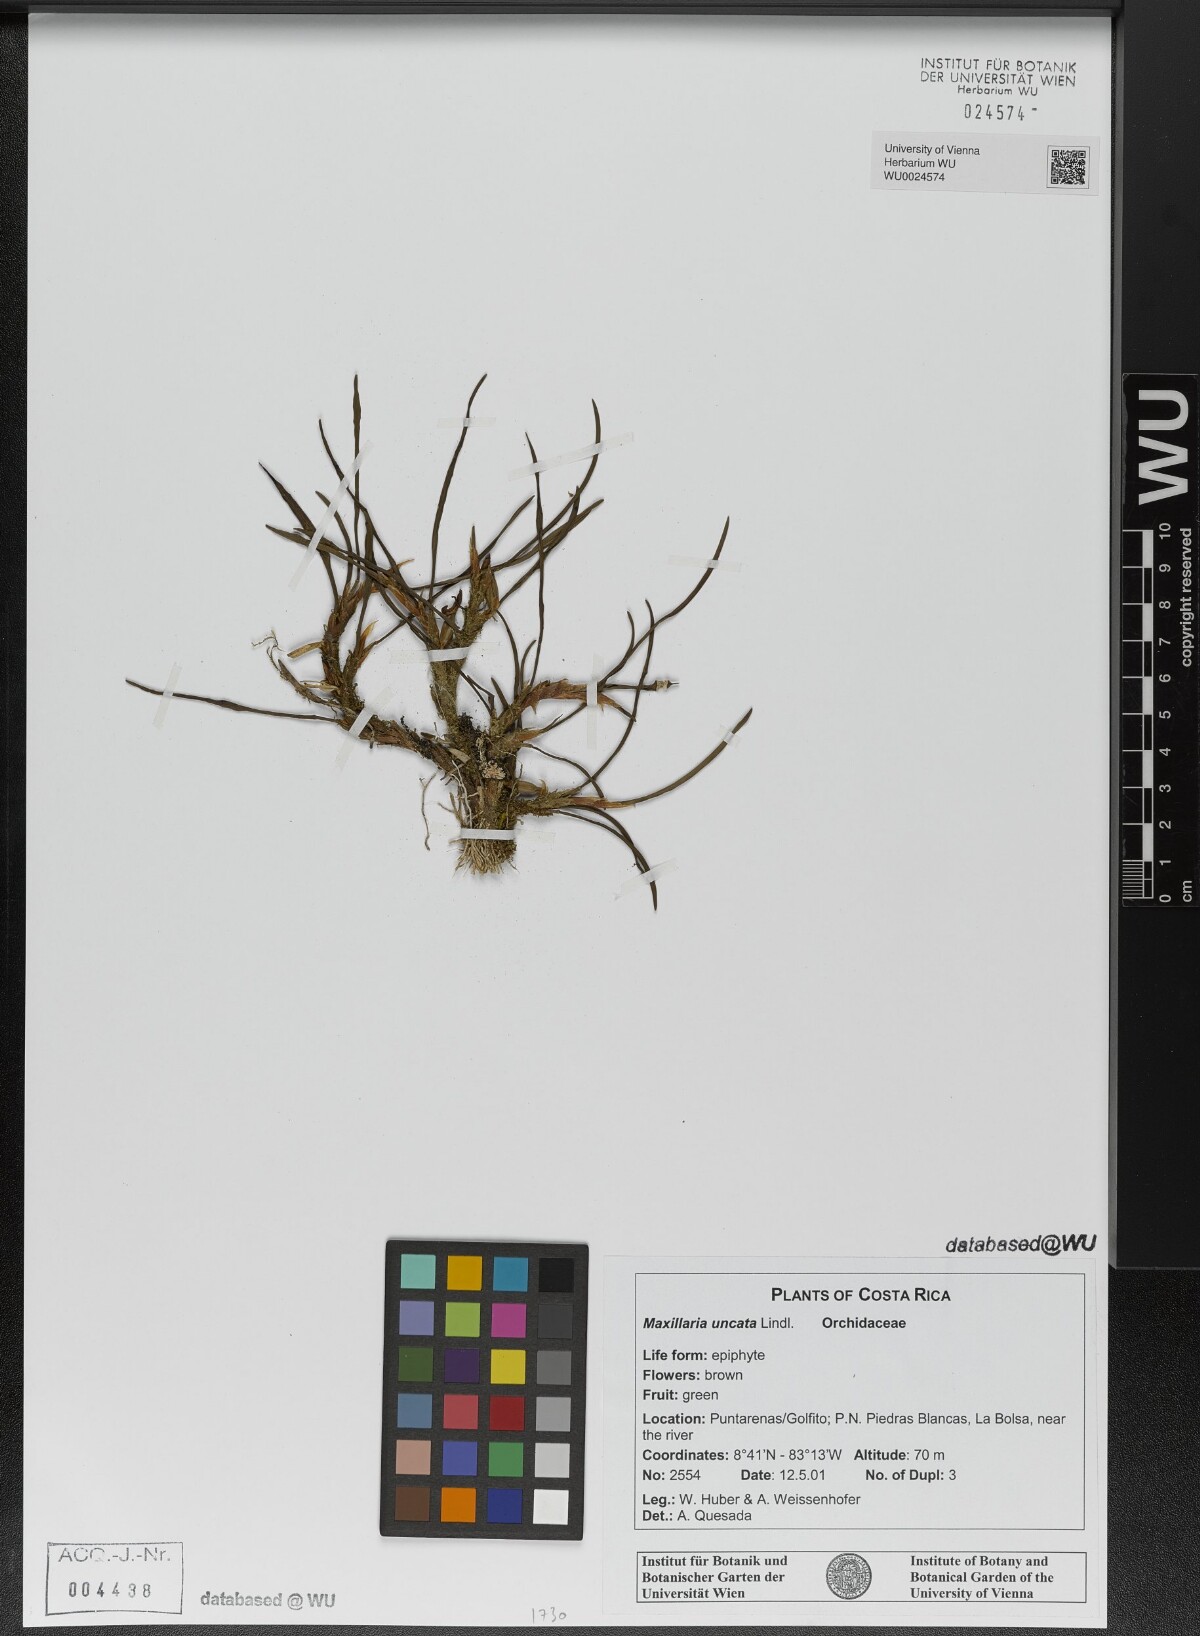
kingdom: Plantae
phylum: Tracheophyta
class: Liliopsida
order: Asparagales
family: Orchidaceae
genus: Maxillaria
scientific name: Maxillaria uncata
